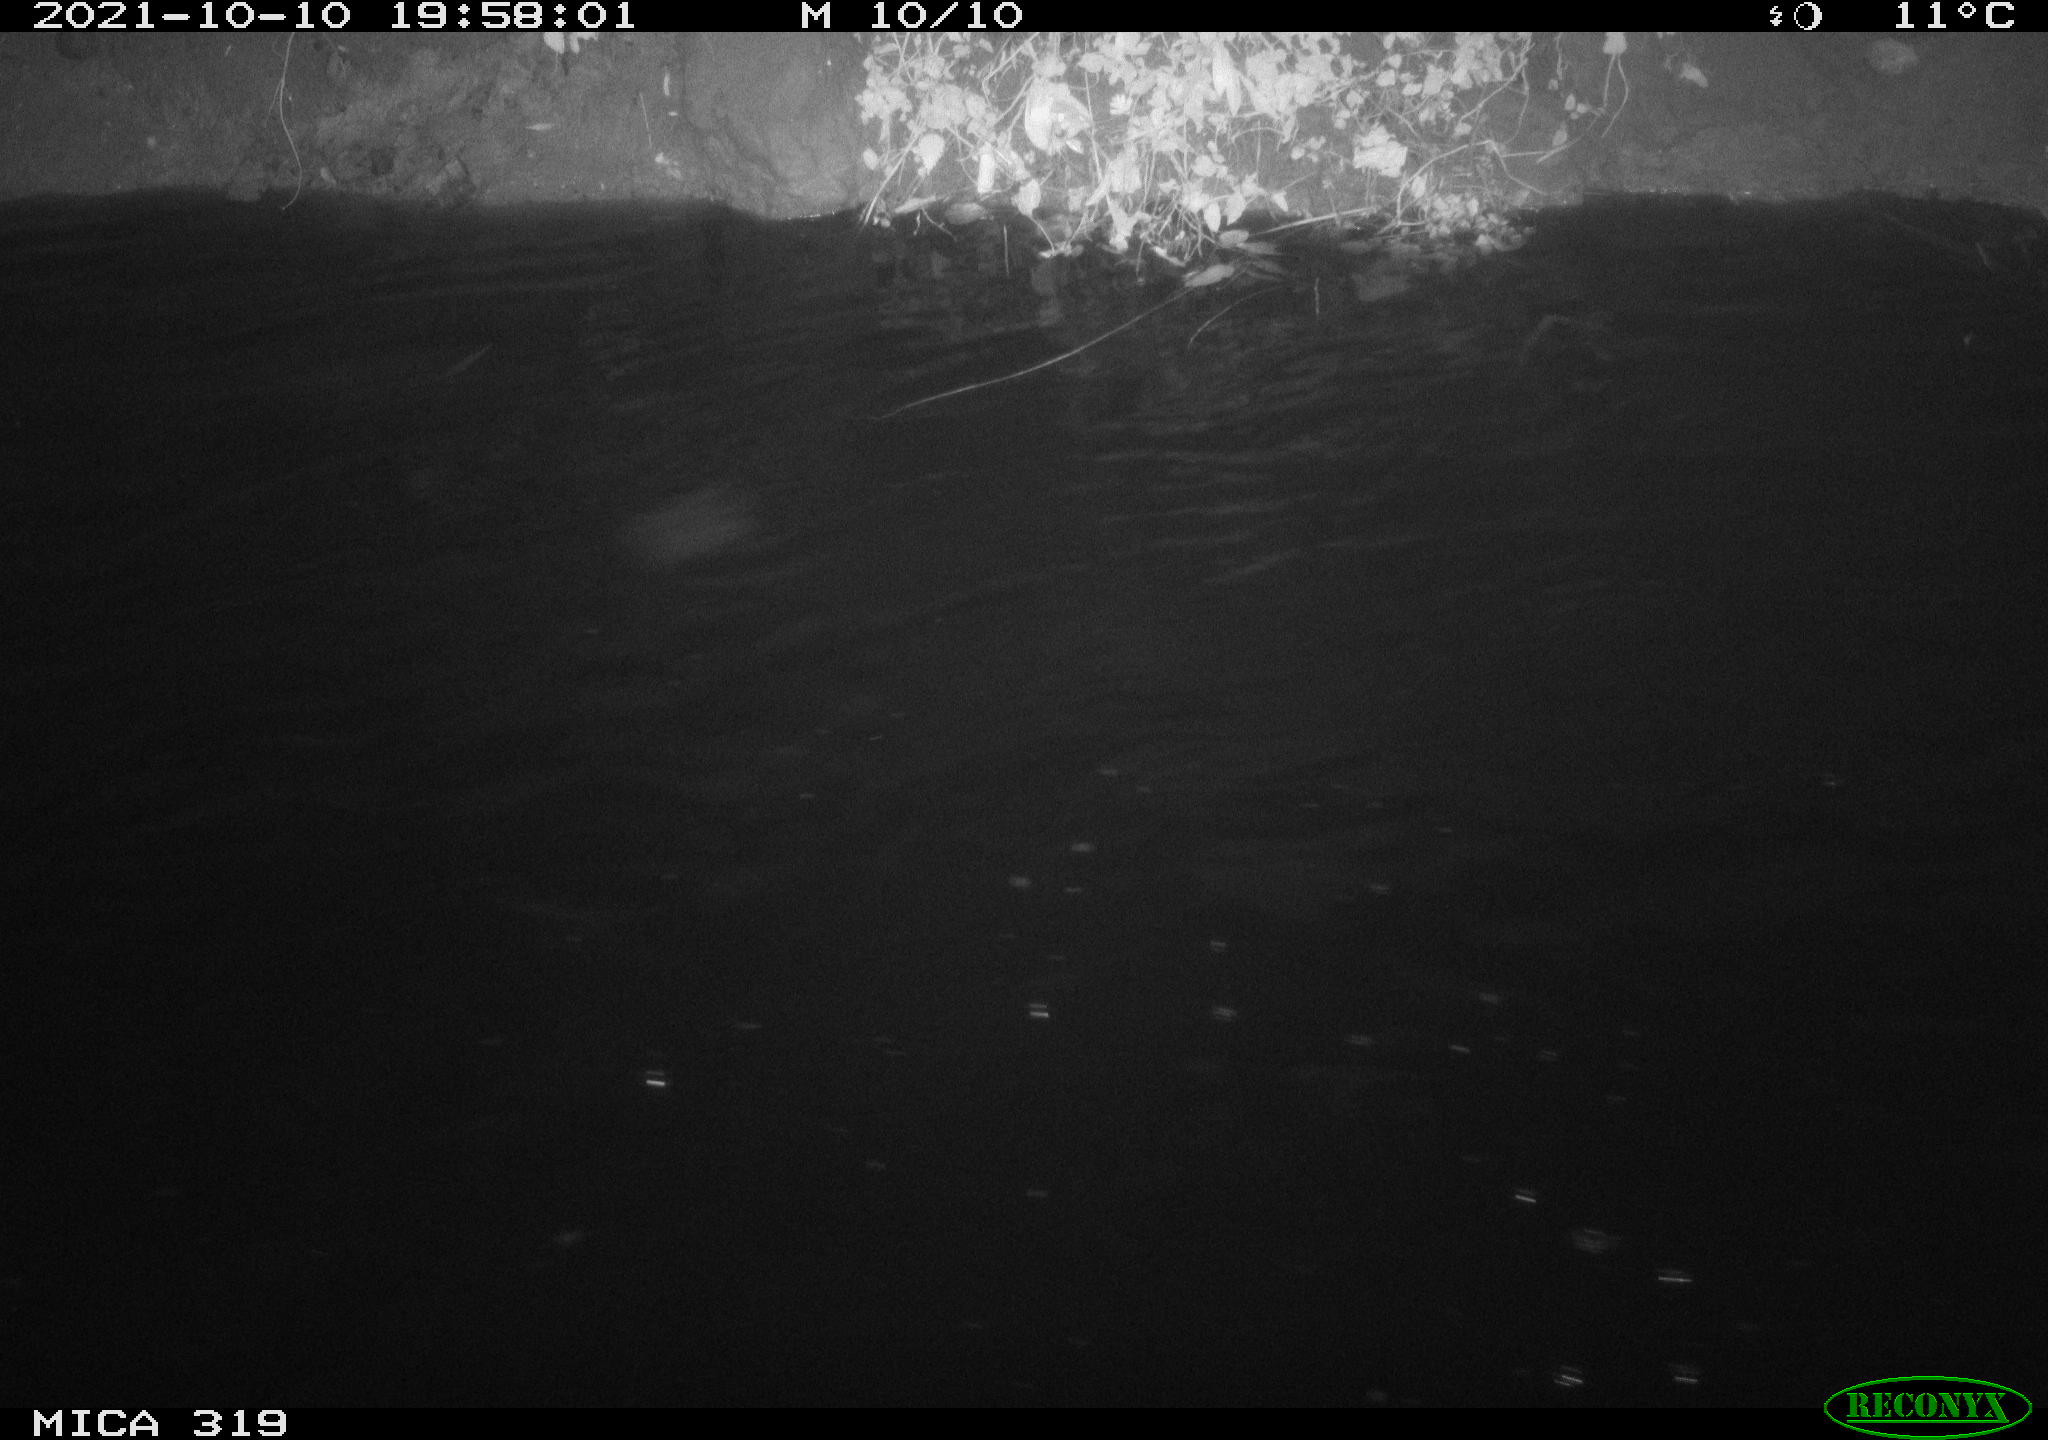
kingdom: Animalia
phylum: Chordata
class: Aves
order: Anseriformes
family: Anatidae
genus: Anas
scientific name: Anas platyrhynchos
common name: Mallard
